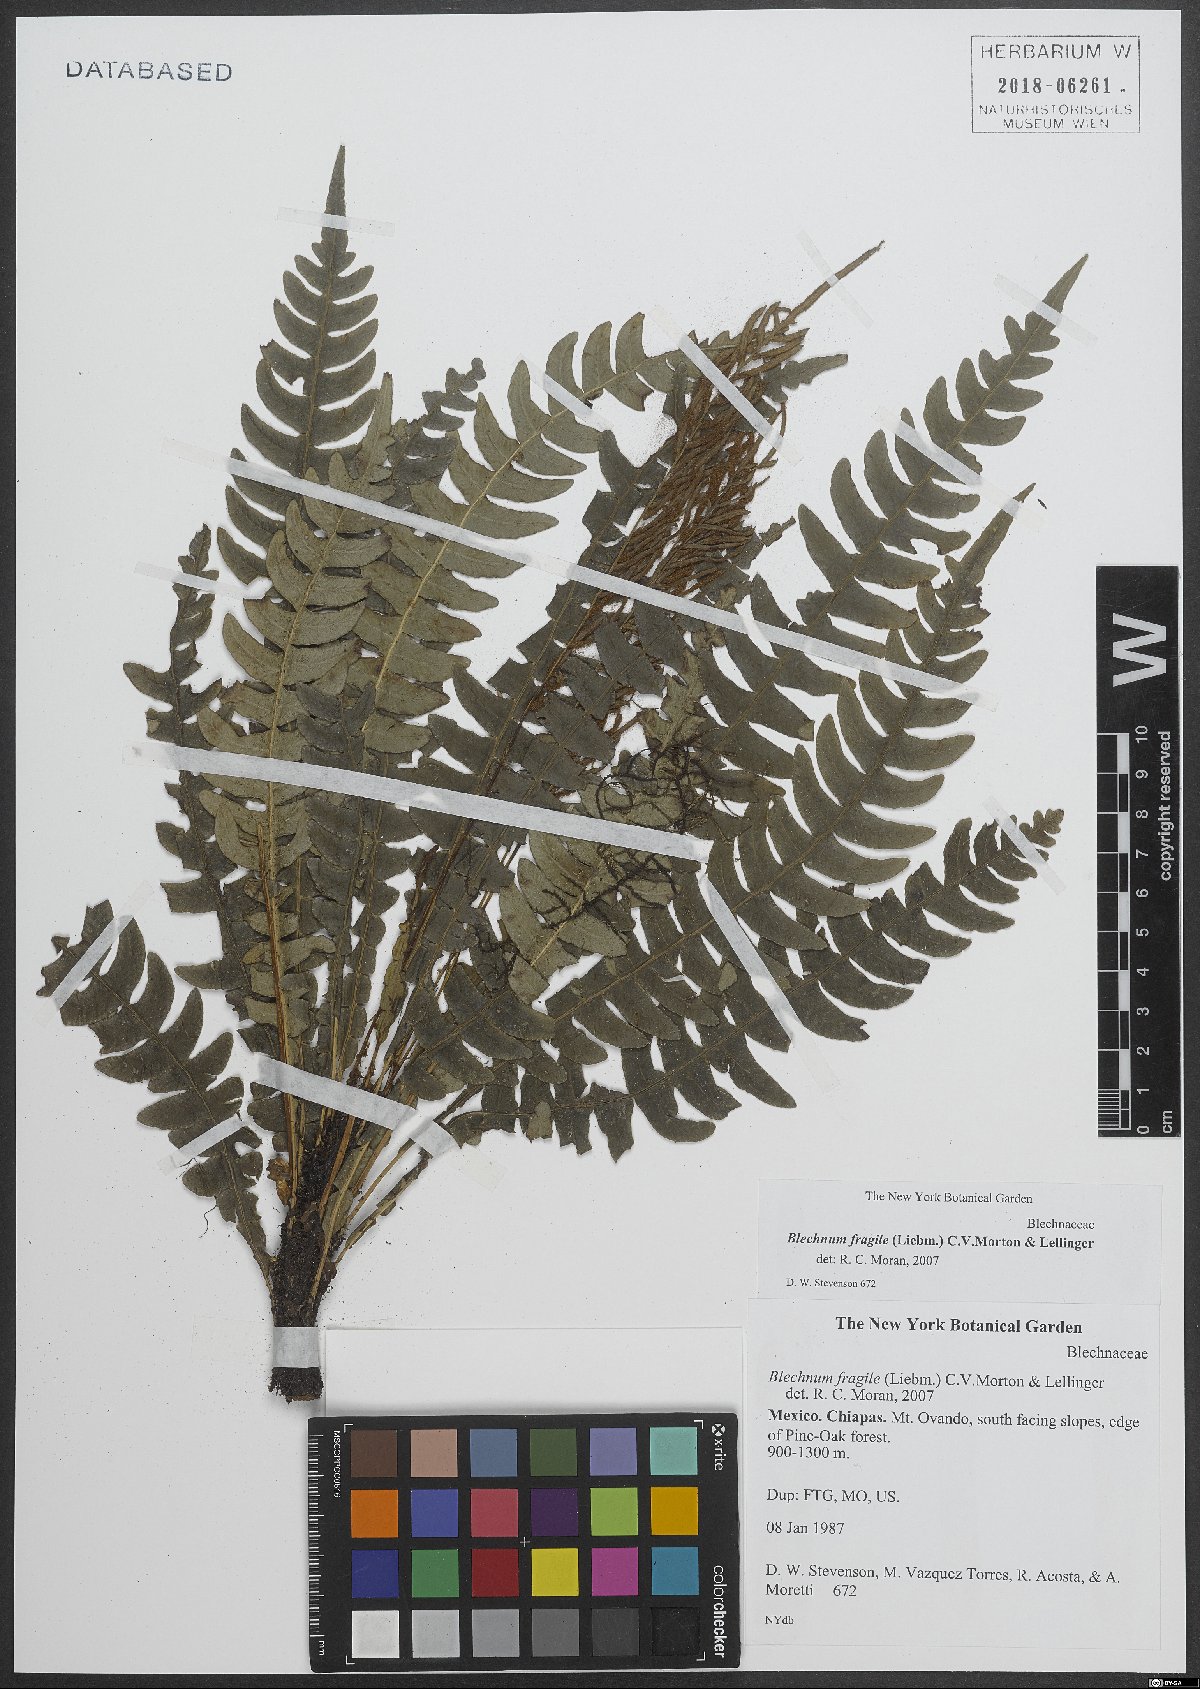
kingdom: Plantae
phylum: Tracheophyta
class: Polypodiopsida
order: Polypodiales
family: Blechnaceae
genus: Lomaridium
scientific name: Lomaridium fragile
